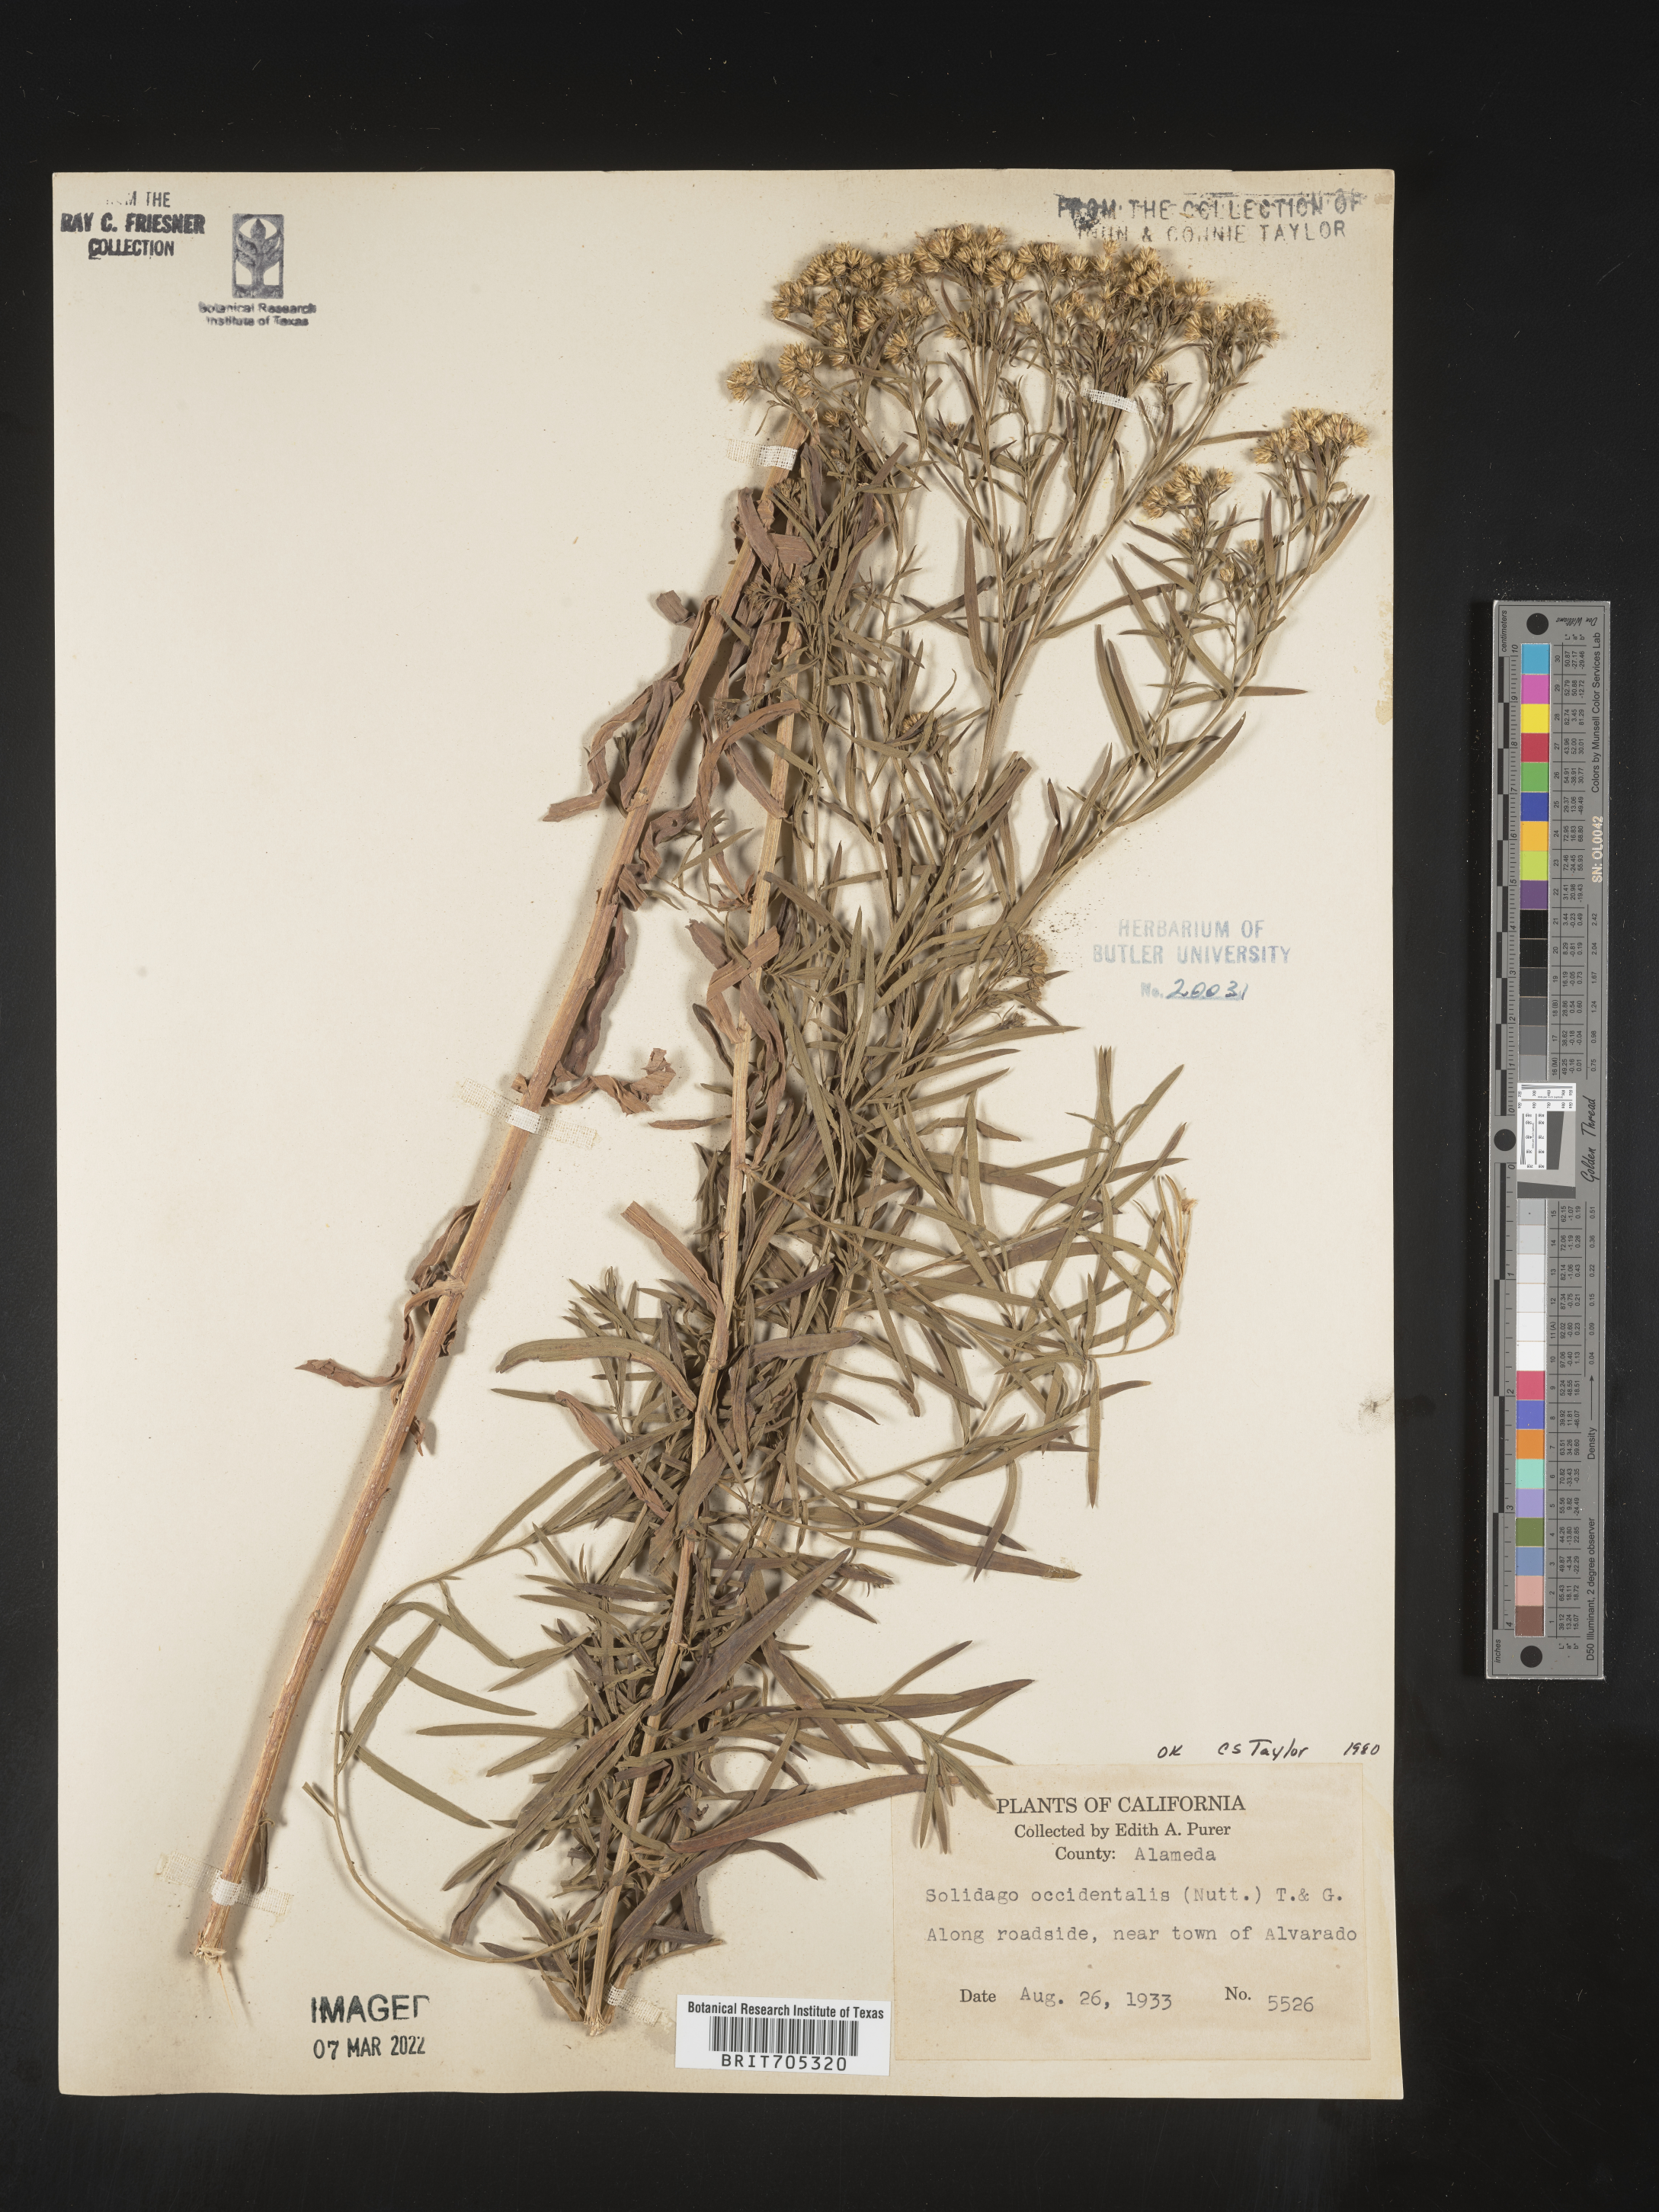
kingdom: Plantae
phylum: Tracheophyta
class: Magnoliopsida
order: Asterales
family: Asteraceae
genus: Euthamia
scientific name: Euthamia occidentalis
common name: Western goldentop
